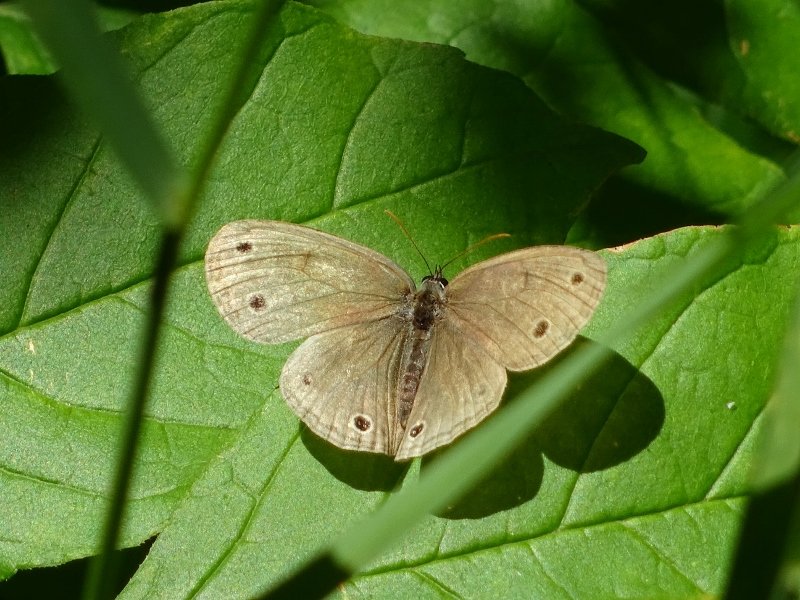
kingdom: Animalia
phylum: Arthropoda
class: Insecta
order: Lepidoptera
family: Nymphalidae
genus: Euptychia
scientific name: Euptychia cymela
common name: Little Wood Satyr
